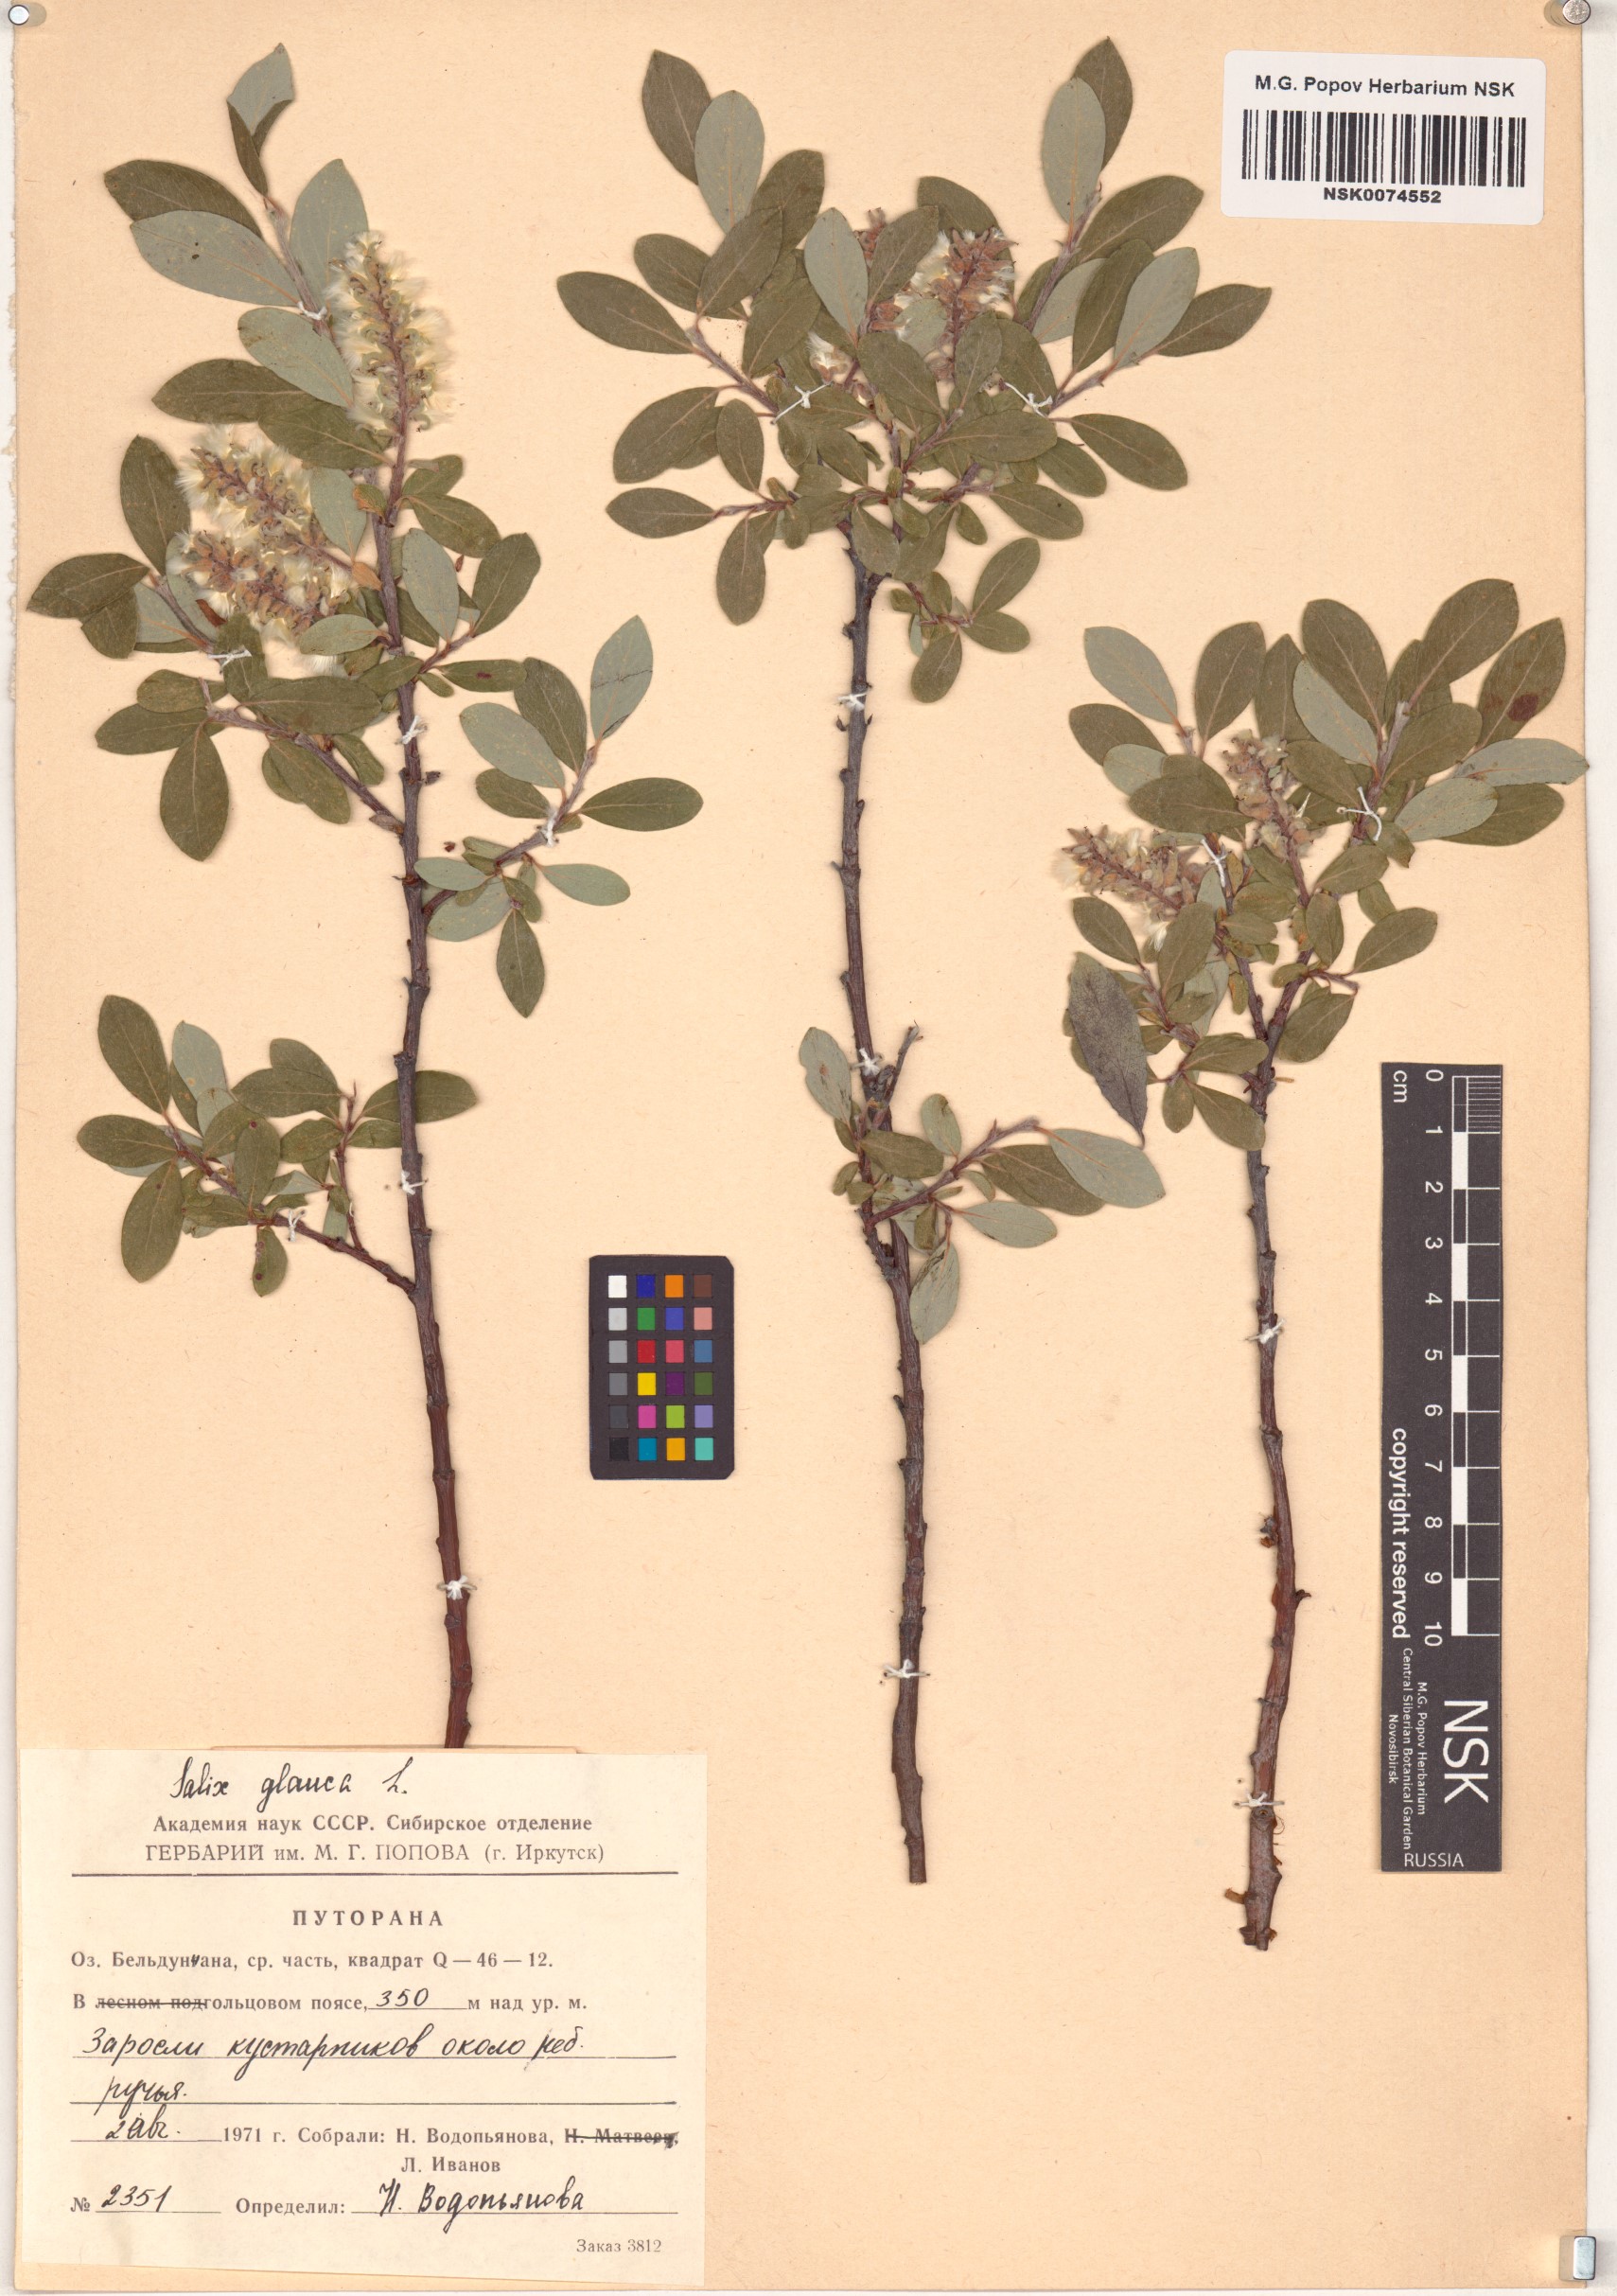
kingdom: Plantae
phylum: Tracheophyta
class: Magnoliopsida
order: Malpighiales
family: Salicaceae
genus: Salix
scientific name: Salix glauca
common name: Glaucous willow
